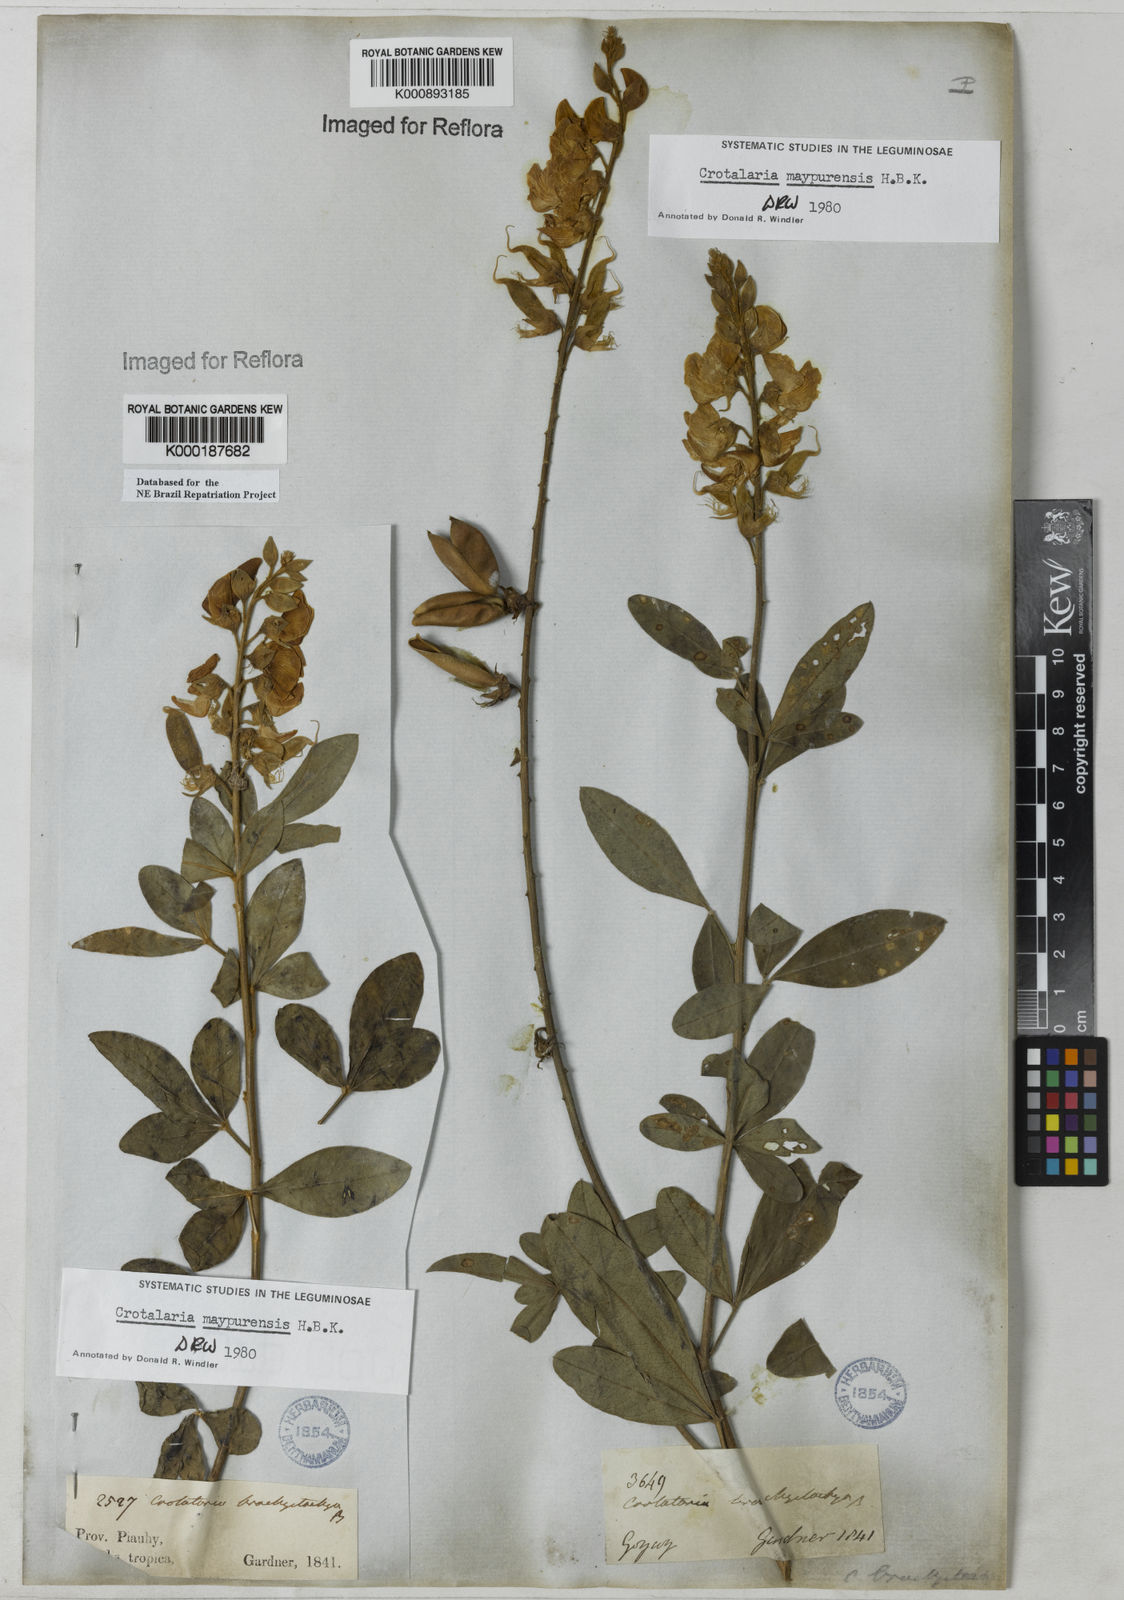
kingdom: Plantae
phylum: Tracheophyta
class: Magnoliopsida
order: Fabales
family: Fabaceae
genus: Crotalaria
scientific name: Crotalaria maypurensis
